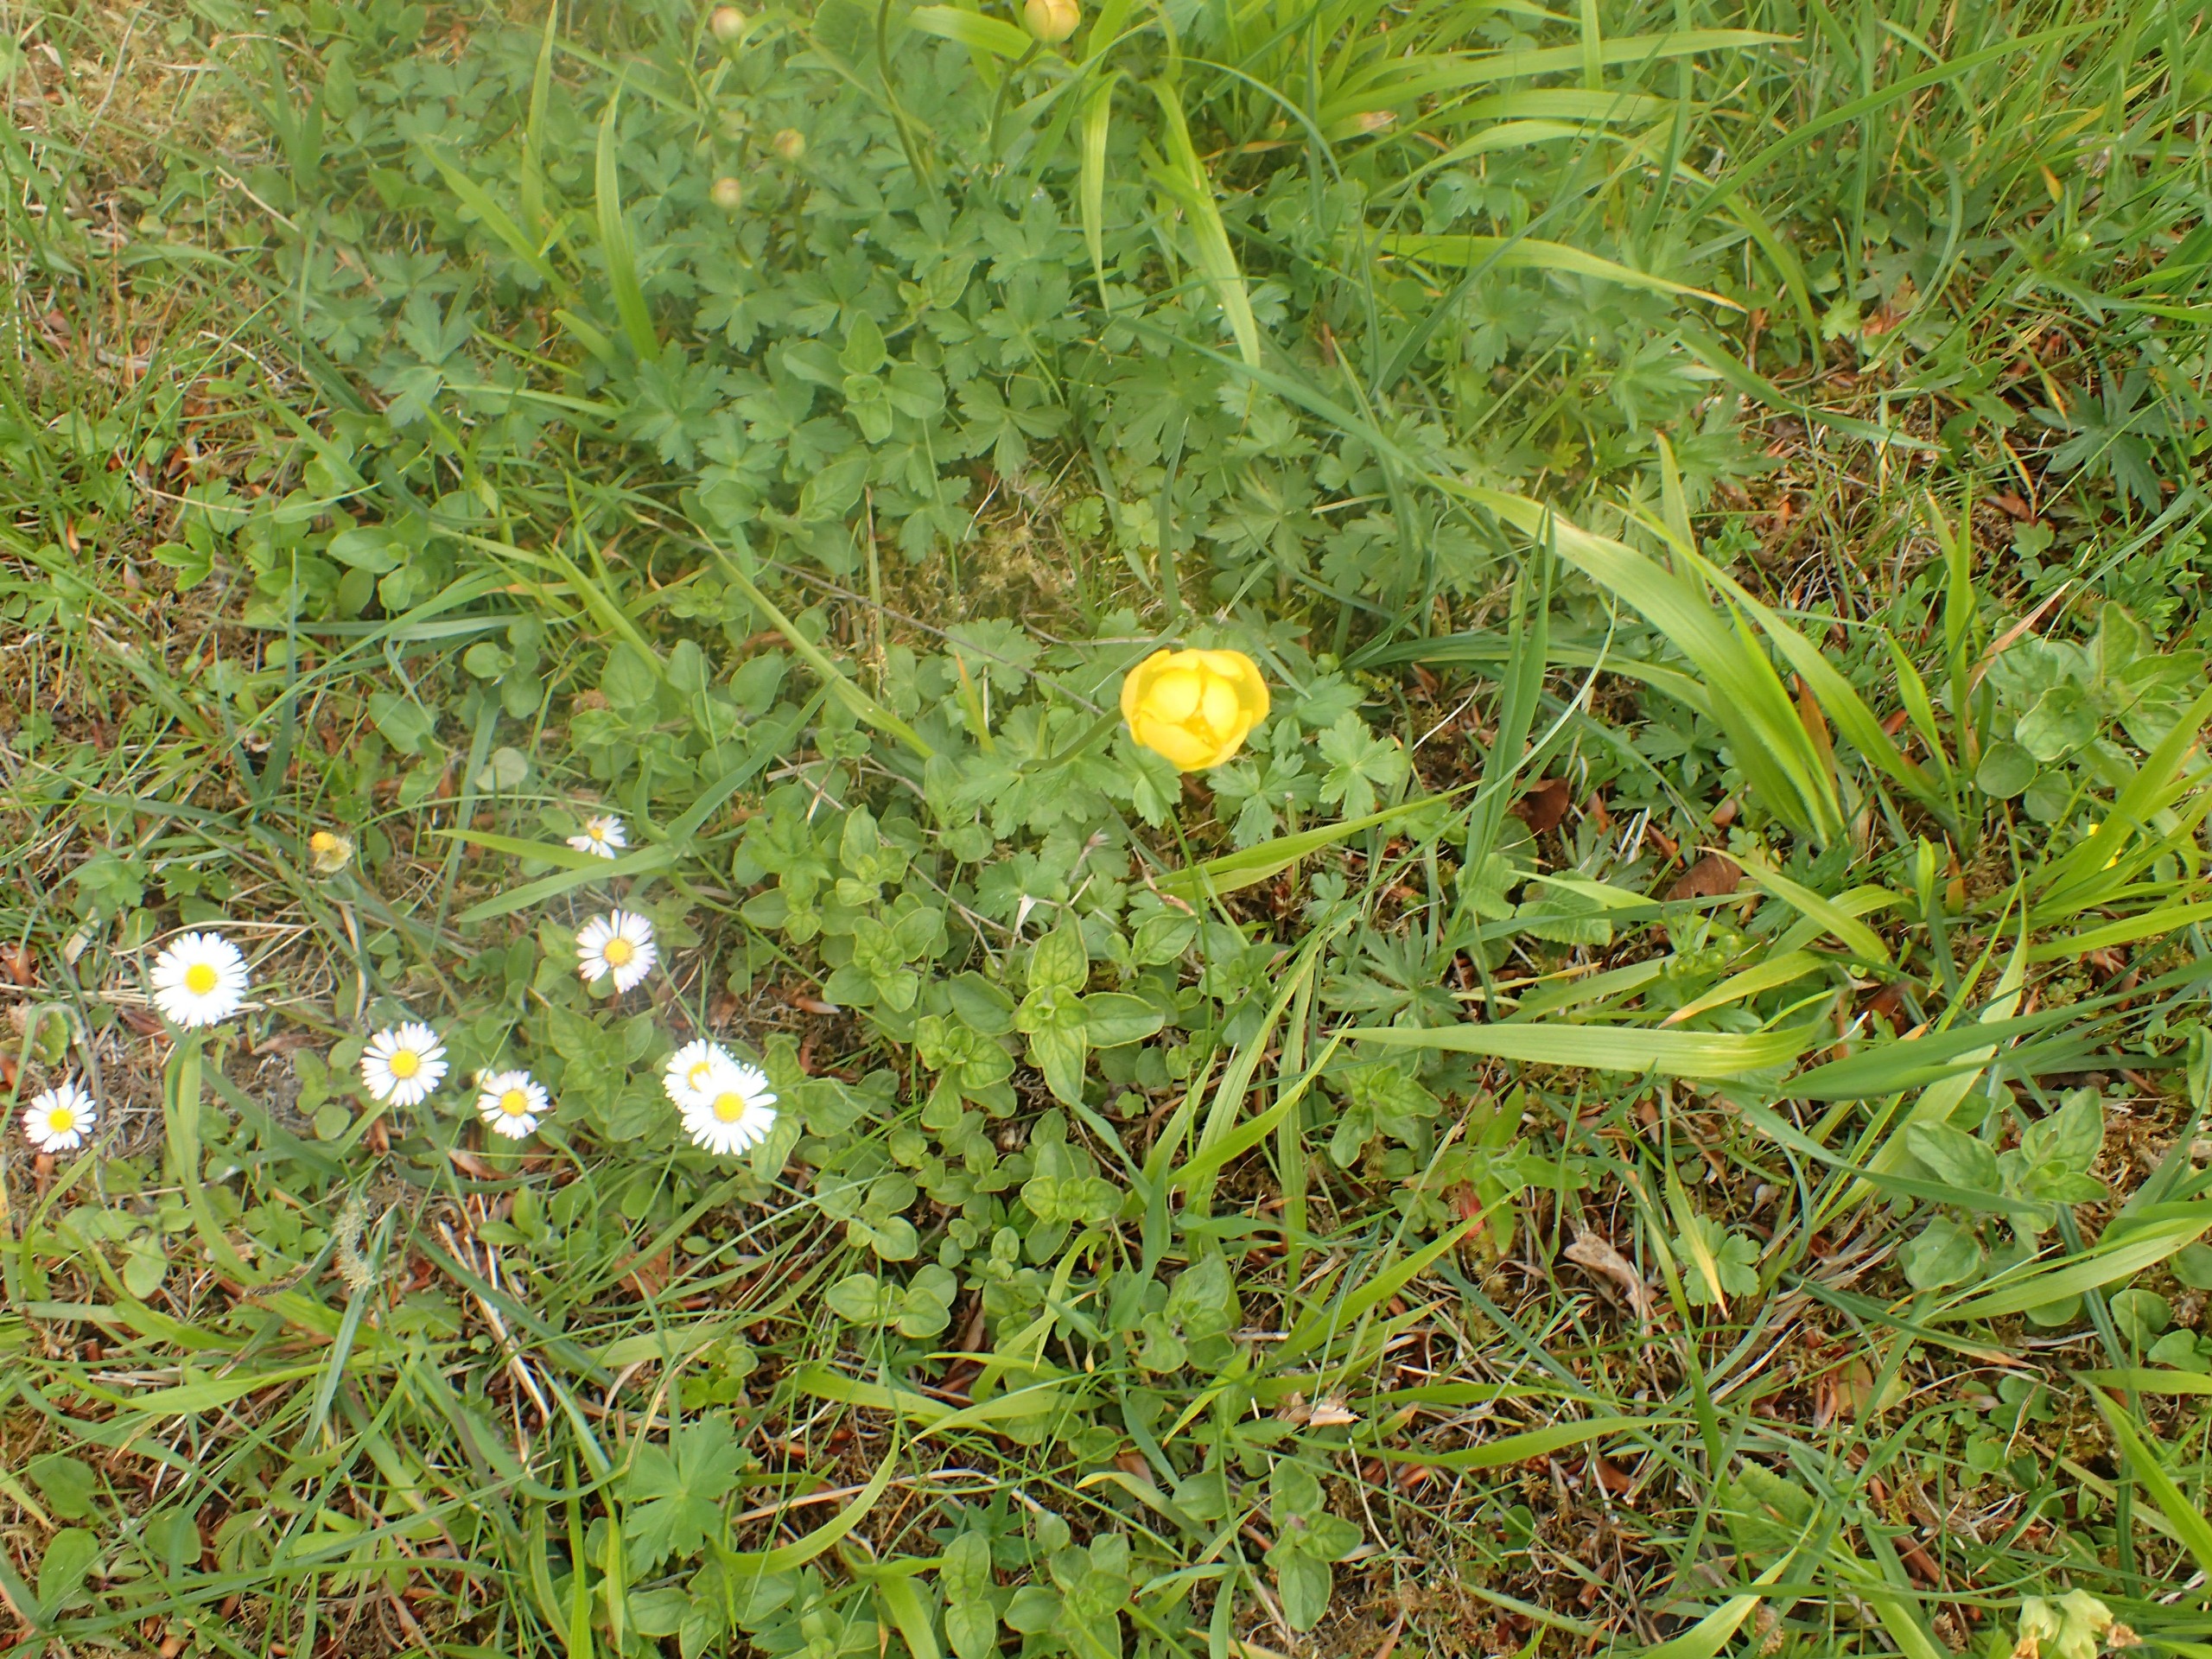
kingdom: Plantae
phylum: Tracheophyta
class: Magnoliopsida
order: Ranunculales
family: Ranunculaceae
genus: Trollius
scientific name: Trollius europaeus
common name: Engblomme
